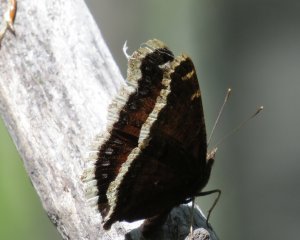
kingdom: Animalia
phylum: Arthropoda
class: Insecta
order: Lepidoptera
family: Nymphalidae
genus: Nymphalis
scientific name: Nymphalis antiopa
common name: Mourning Cloak
